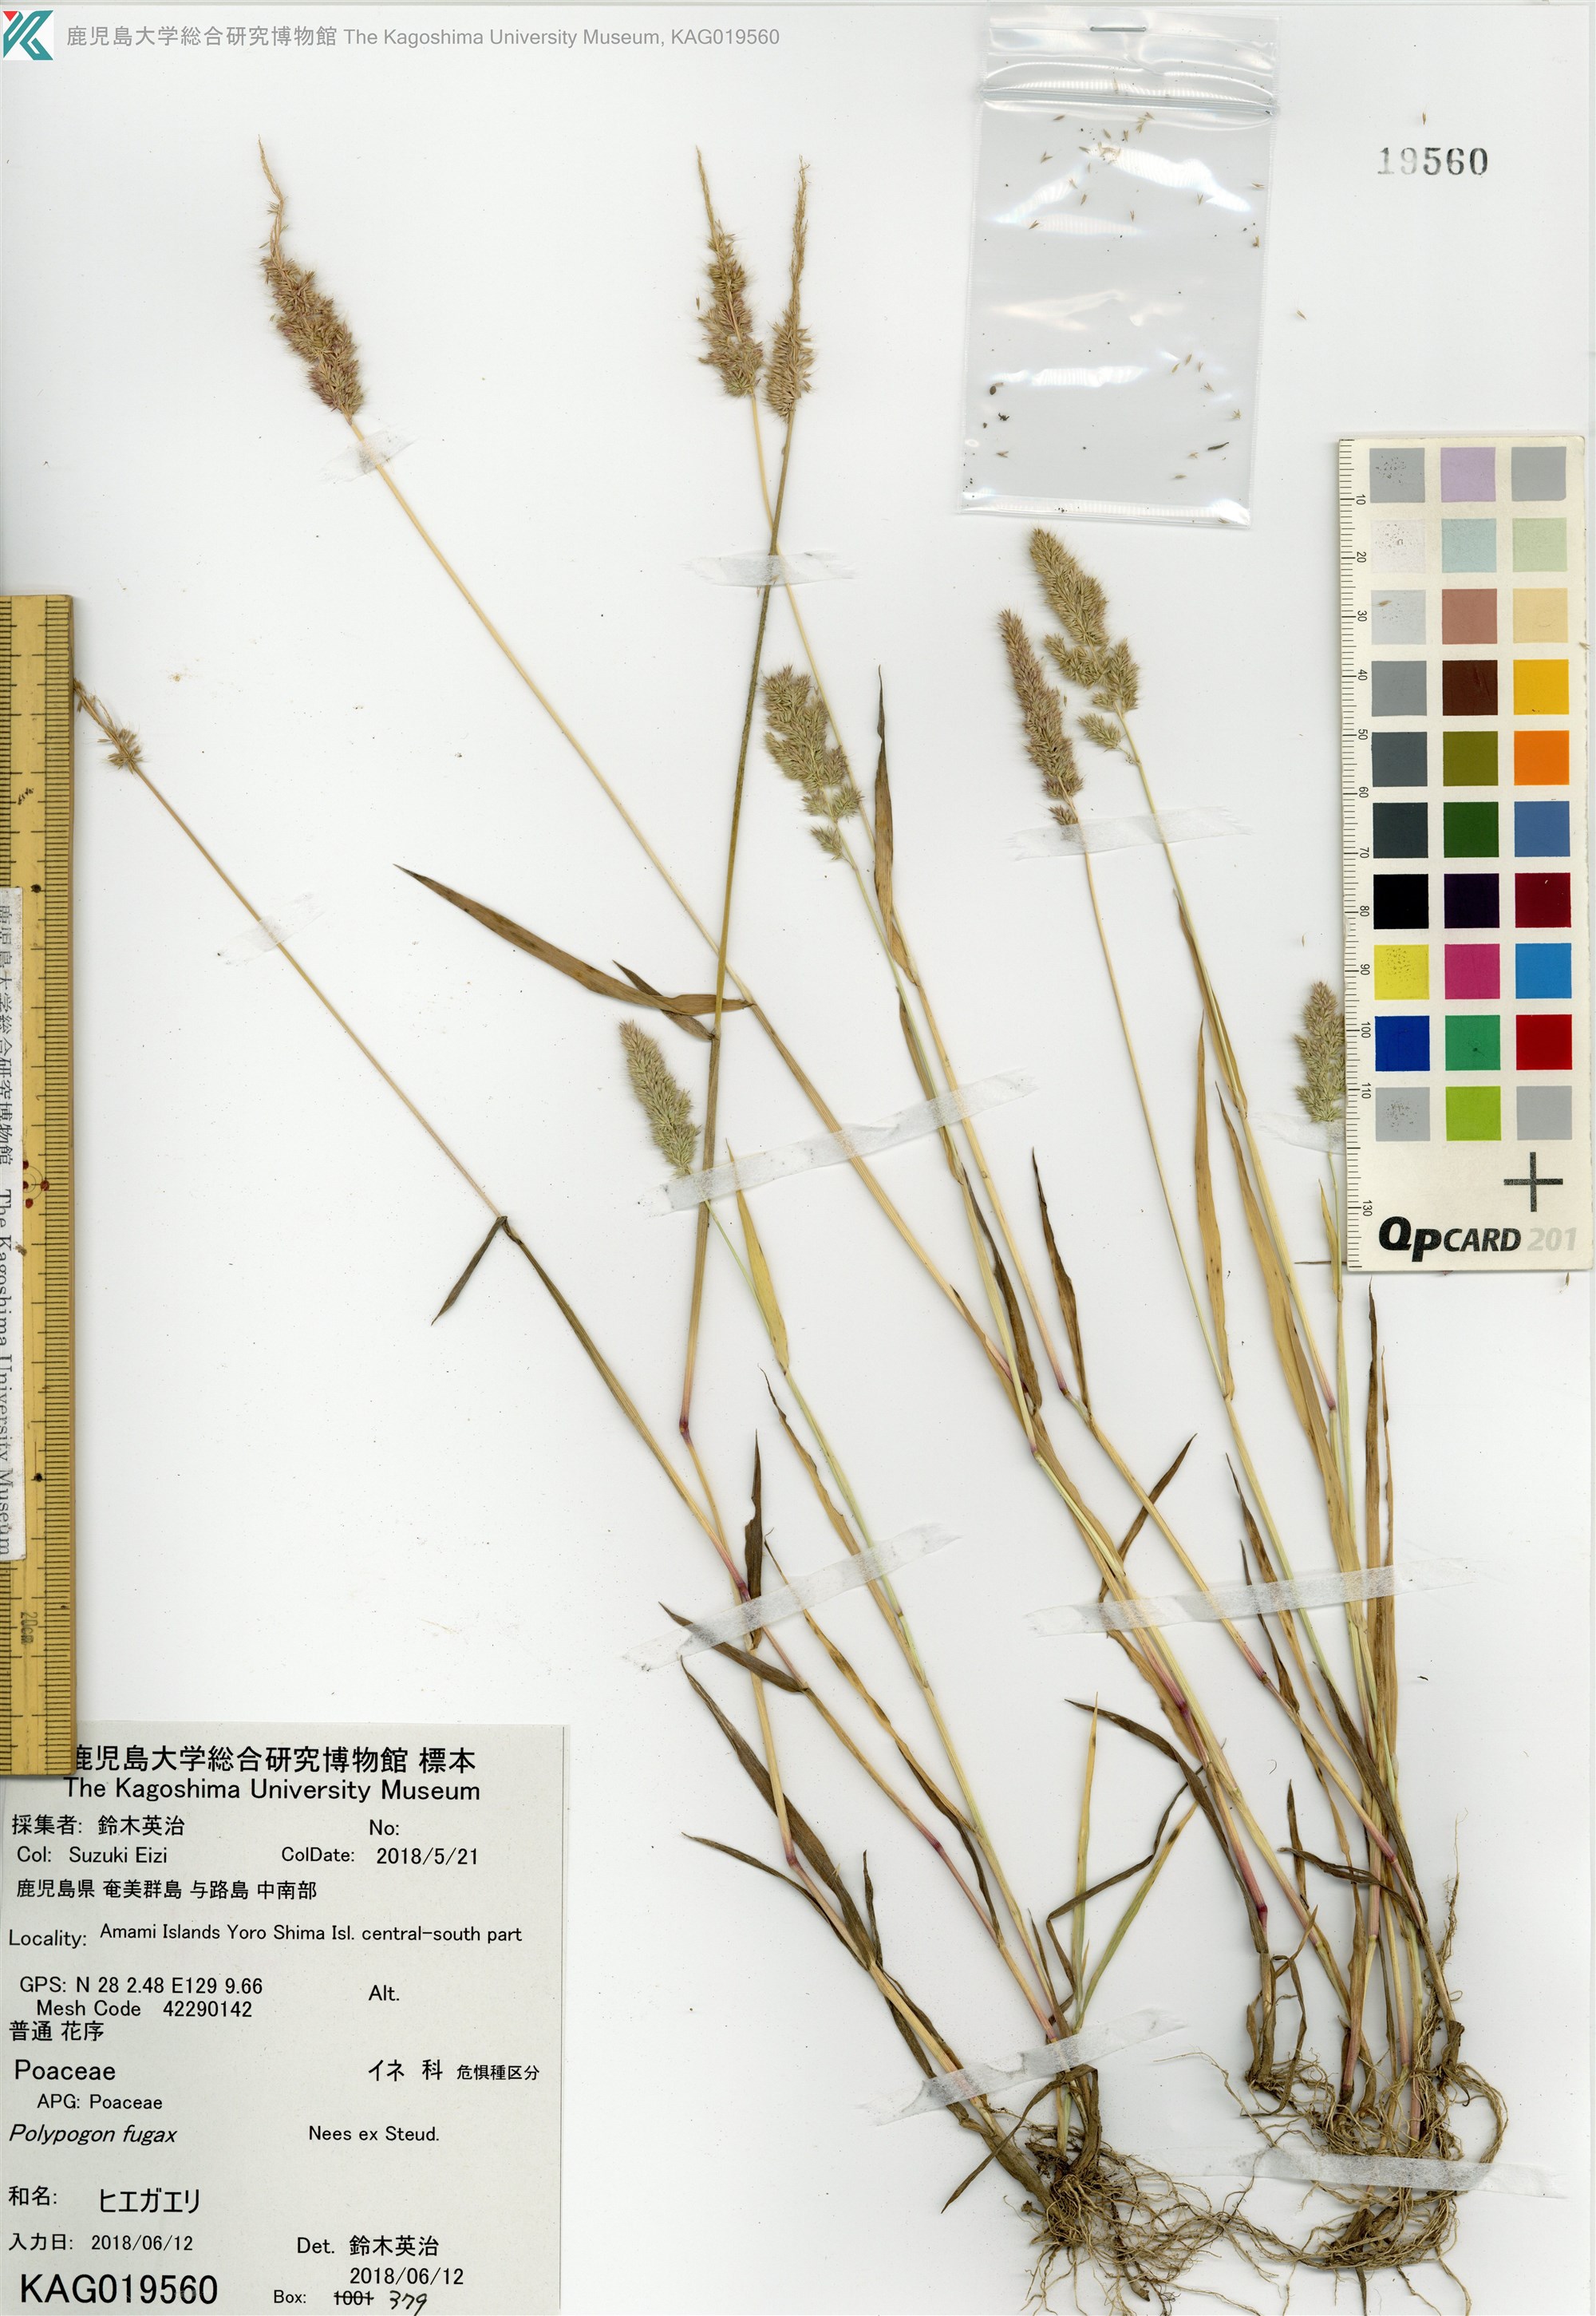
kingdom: Plantae
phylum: Tracheophyta
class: Liliopsida
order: Poales
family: Poaceae
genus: Polypogon
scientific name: Polypogon fugax
